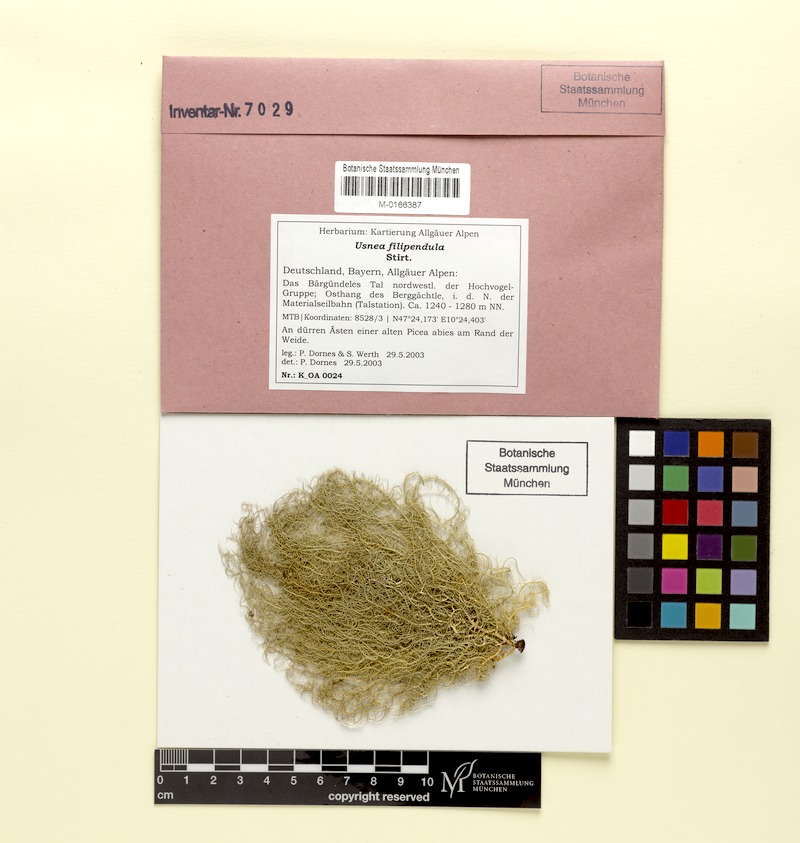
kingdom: Fungi
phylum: Ascomycota
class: Lecanoromycetes
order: Lecanorales
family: Parmeliaceae
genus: Usnea
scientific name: Usnea filipendula
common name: Fishbone beard lichen
